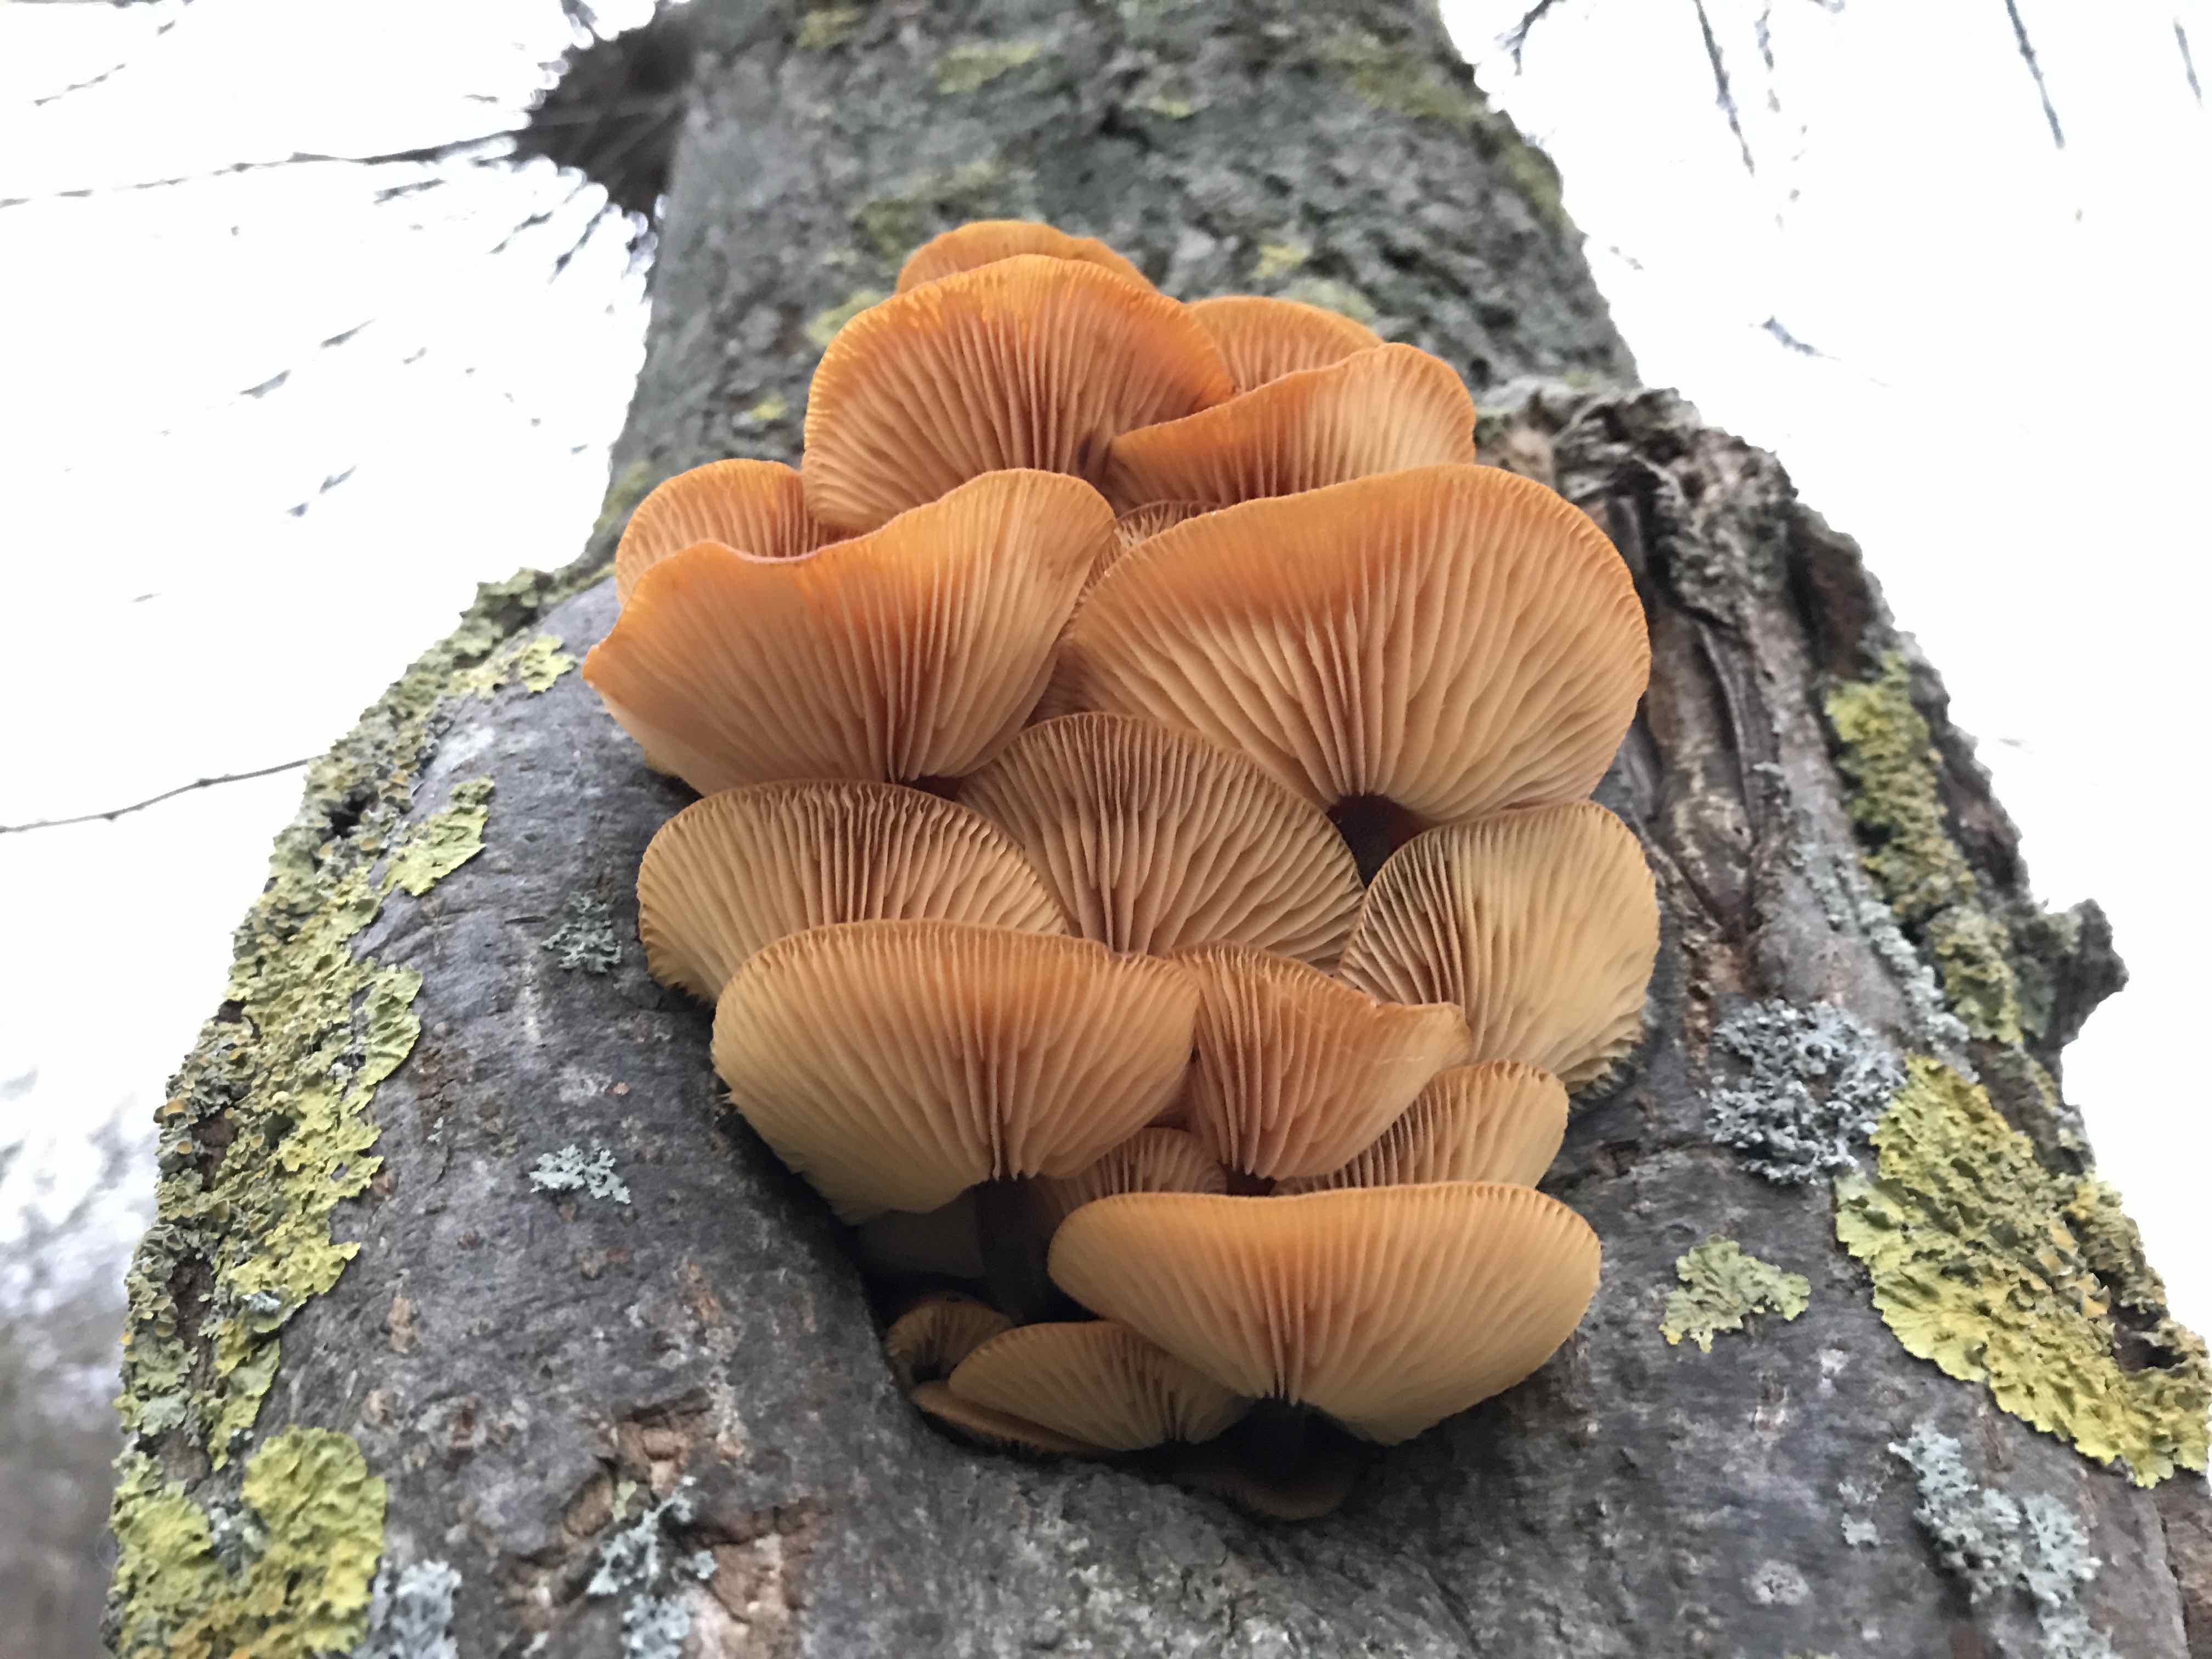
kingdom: Fungi
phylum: Basidiomycota
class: Agaricomycetes
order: Agaricales
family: Physalacriaceae
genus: Flammulina
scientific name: Flammulina velutipes
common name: gul fløjlsfod
